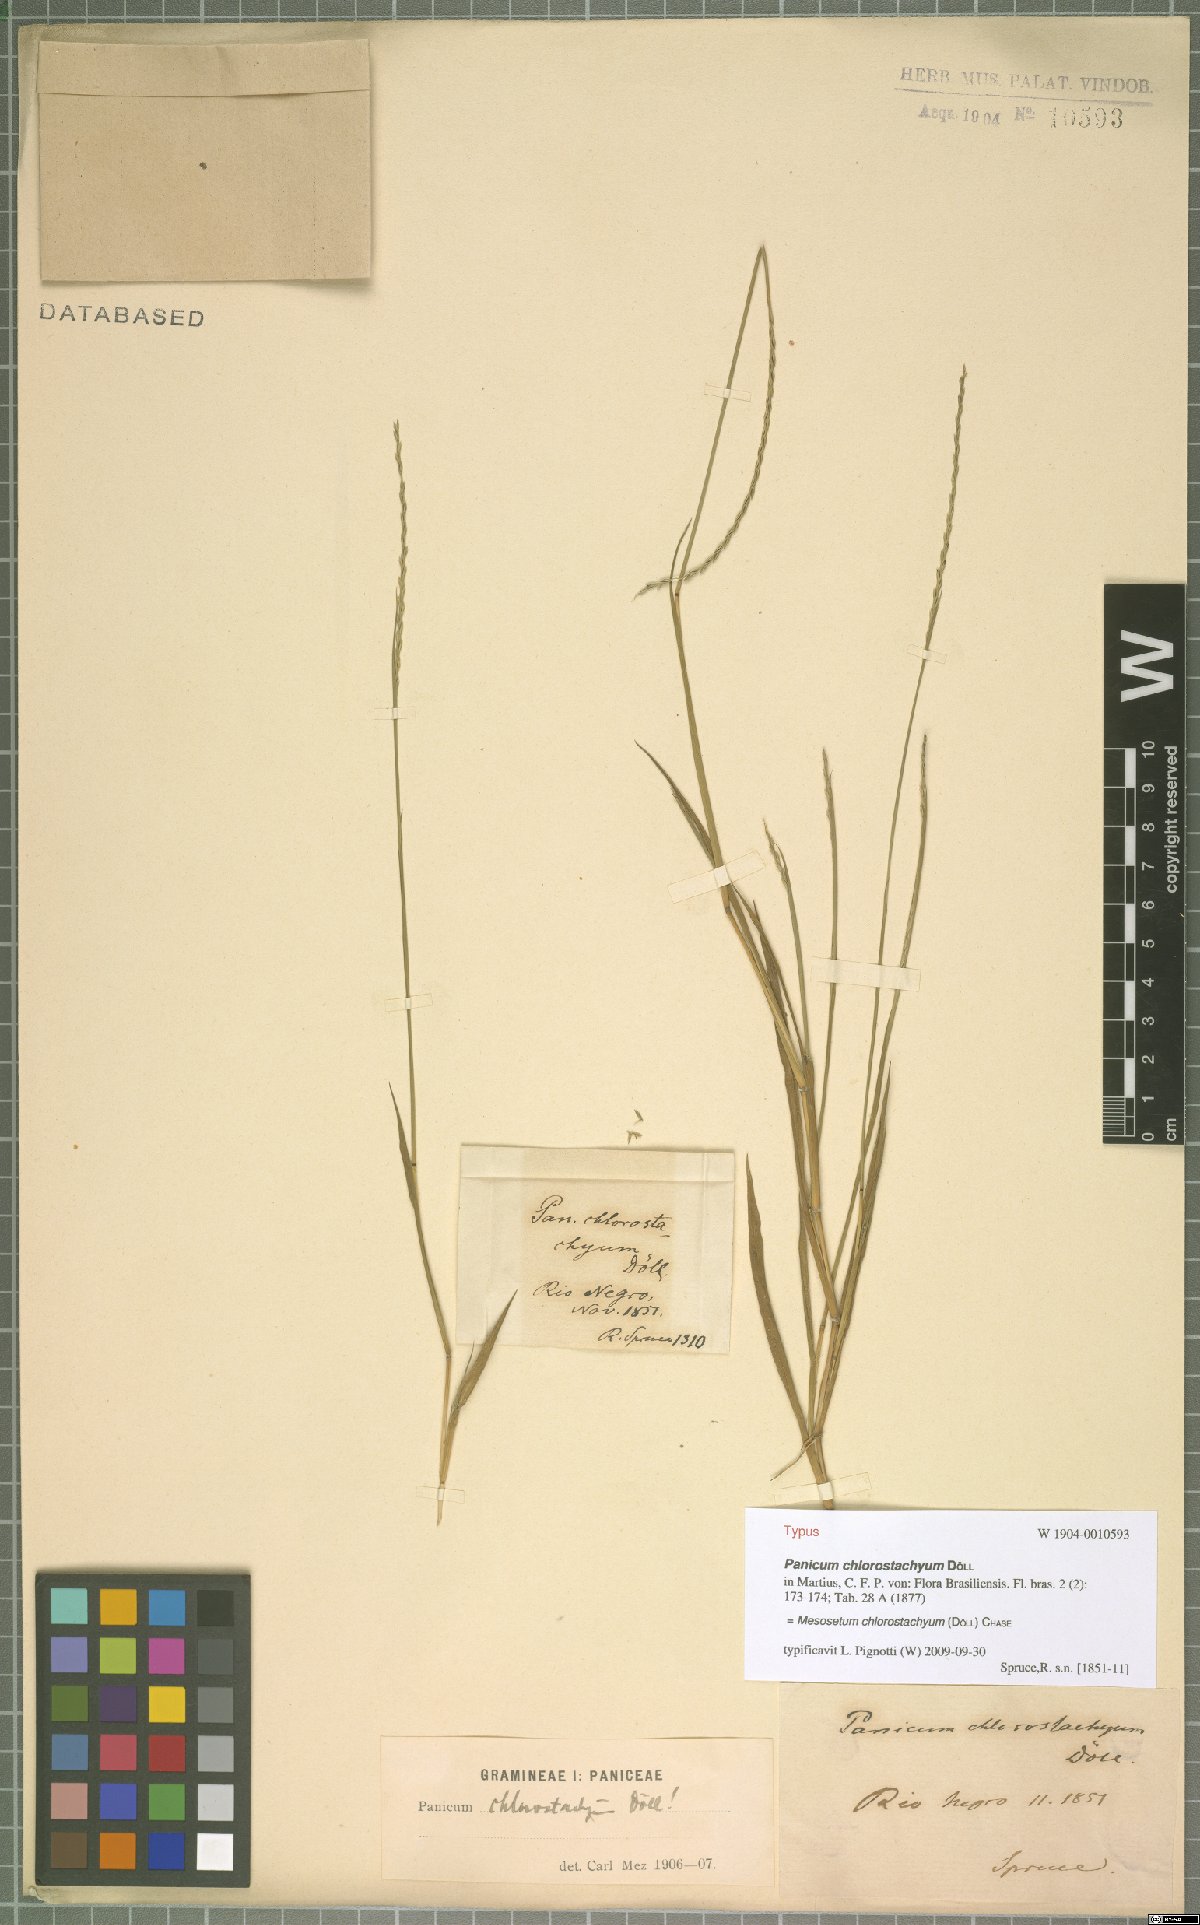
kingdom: Plantae
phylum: Tracheophyta
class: Liliopsida
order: Poales
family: Poaceae
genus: Mesosetum
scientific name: Mesosetum chlorostachyum
